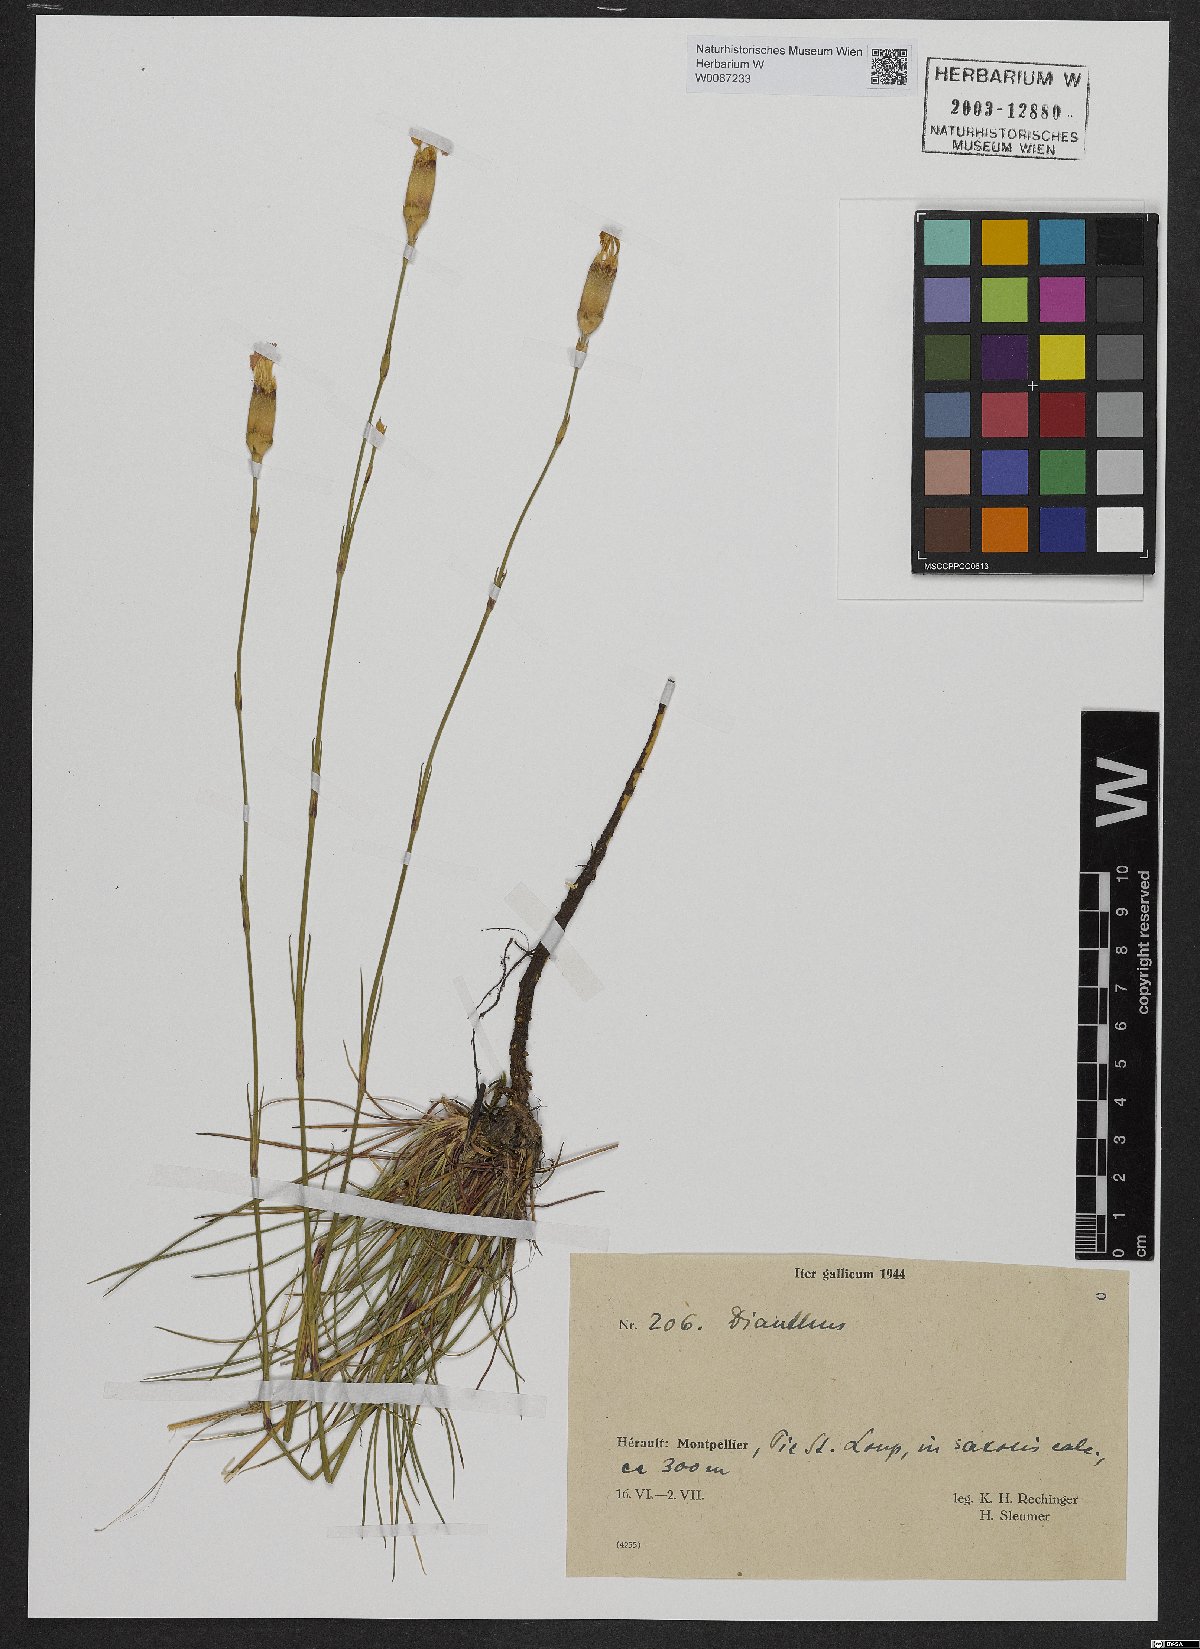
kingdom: Plantae
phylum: Tracheophyta
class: Magnoliopsida
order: Caryophyllales
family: Caryophyllaceae
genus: Dianthus
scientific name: Dianthus
